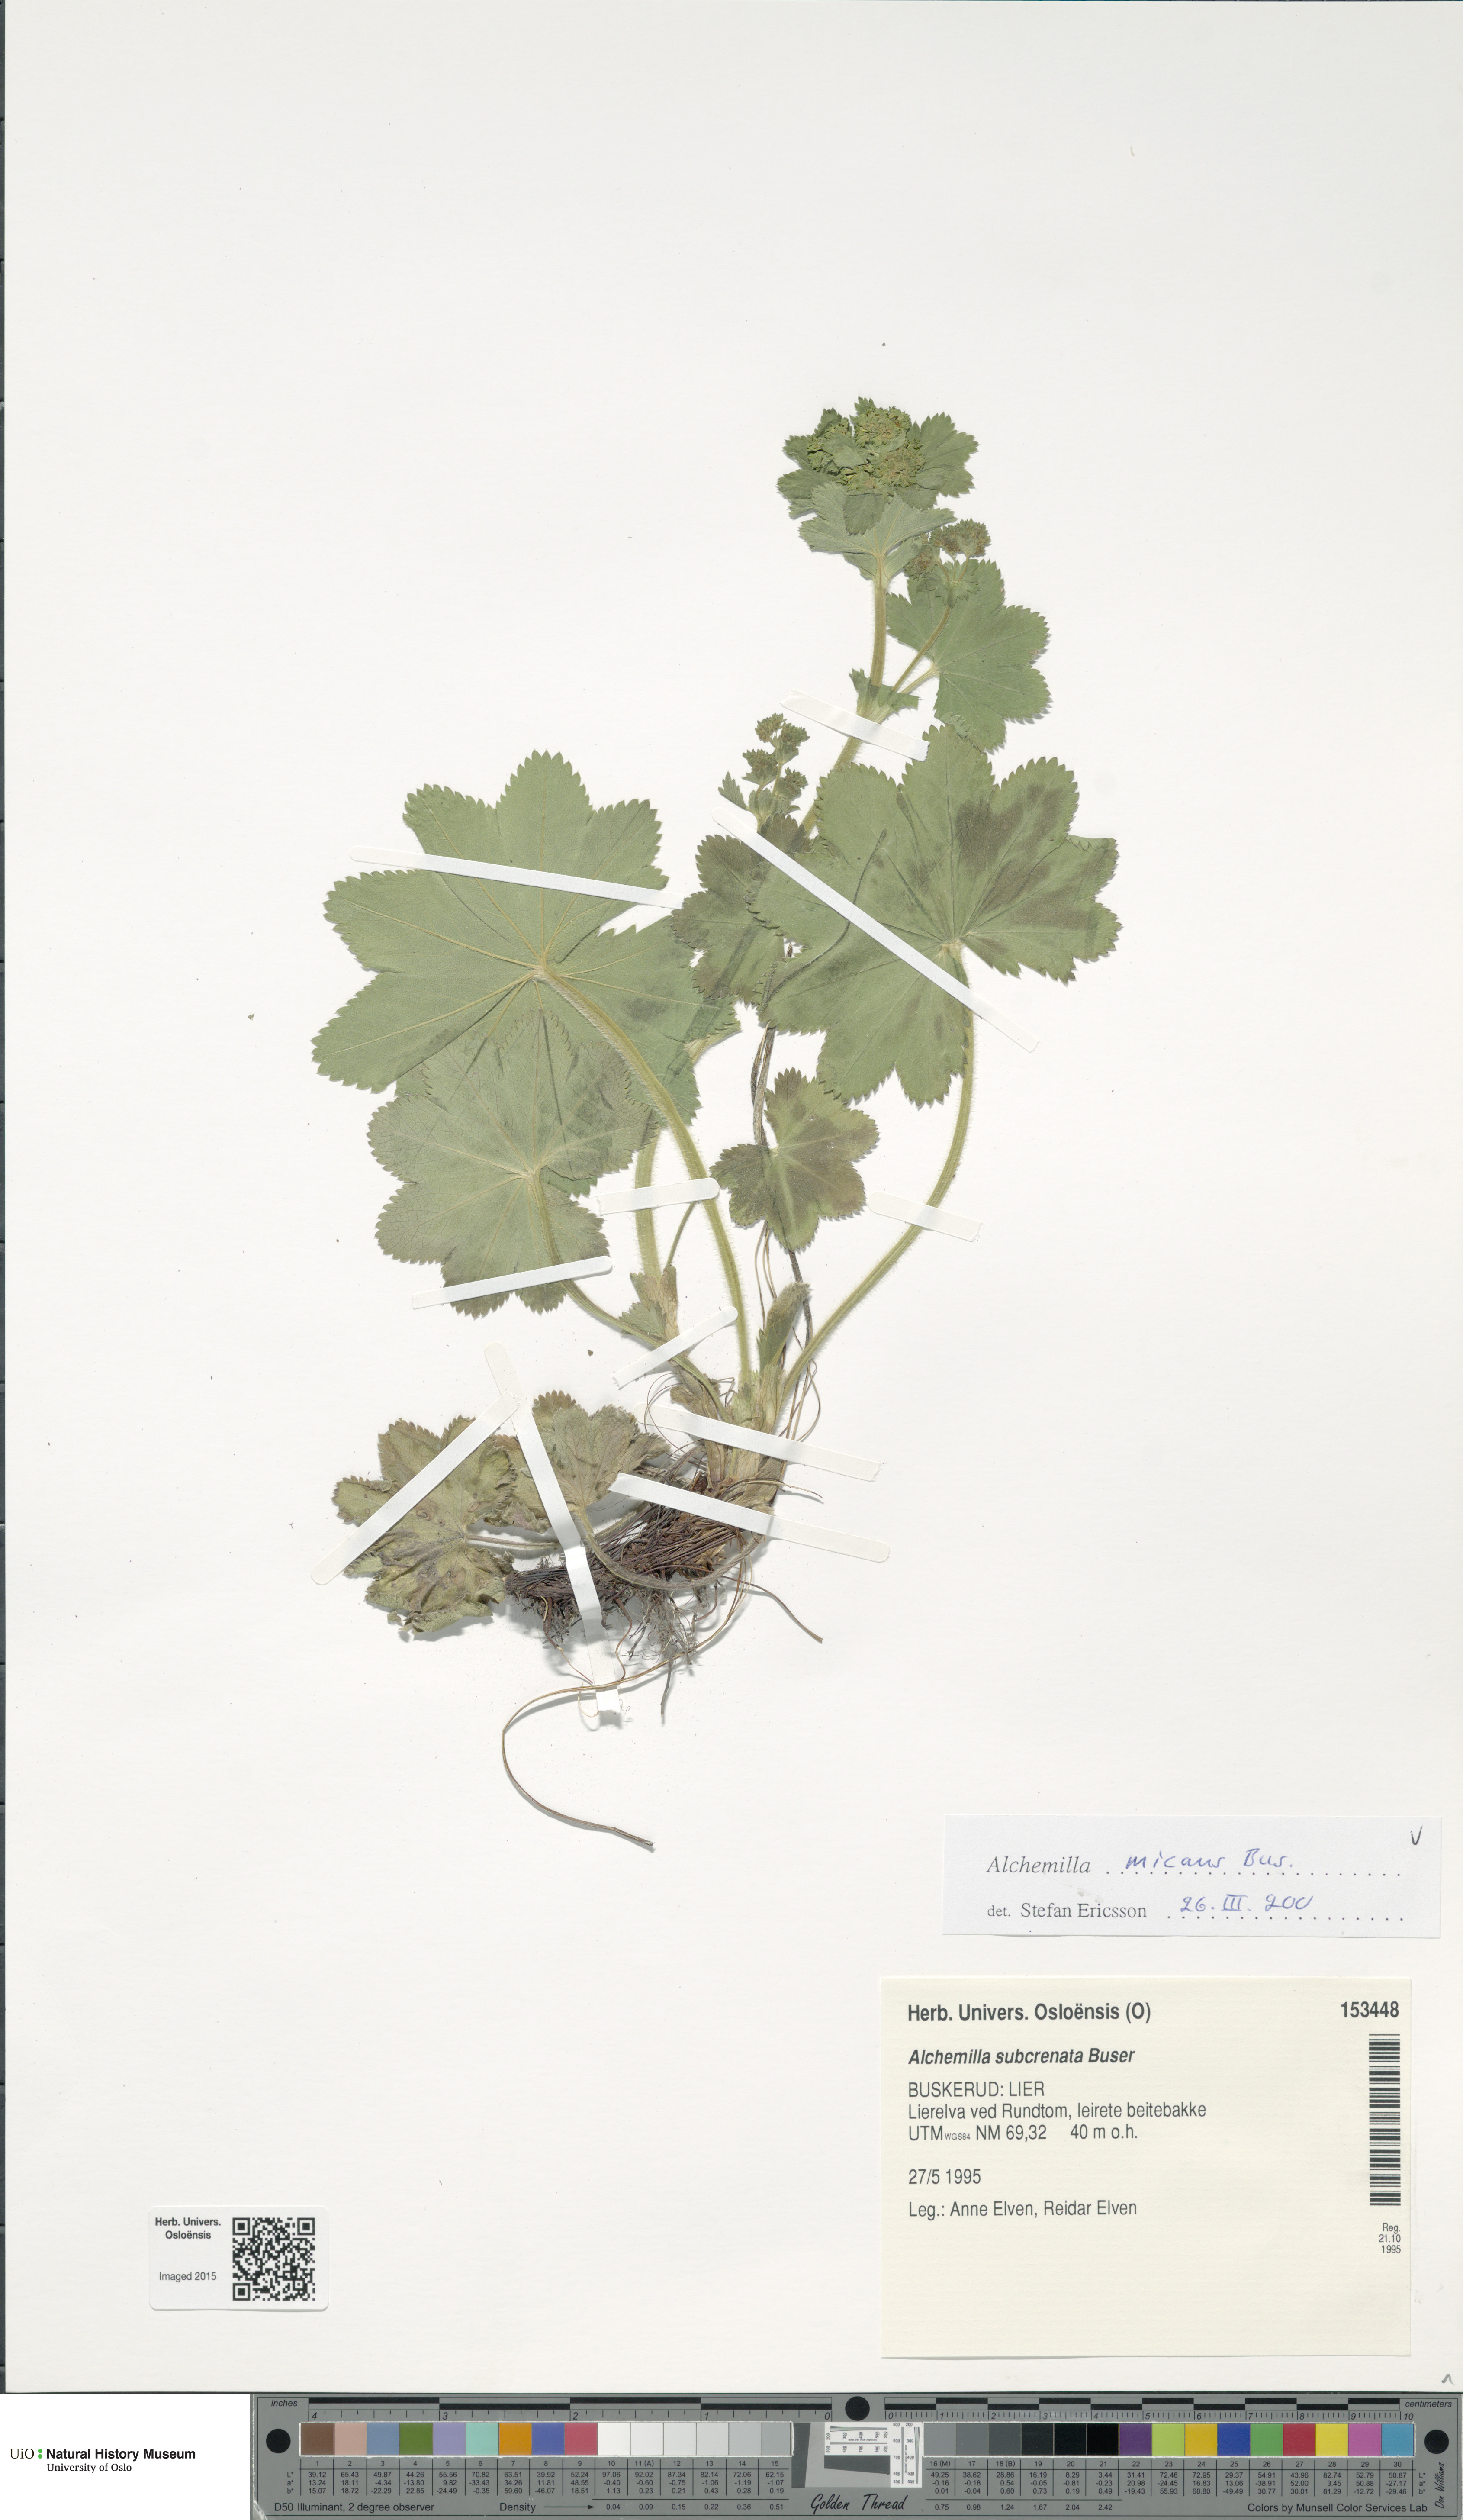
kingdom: Plantae
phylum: Tracheophyta
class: Magnoliopsida
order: Rosales
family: Rosaceae
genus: Alchemilla
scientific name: Alchemilla micans
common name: Gleaming lady's mantle
